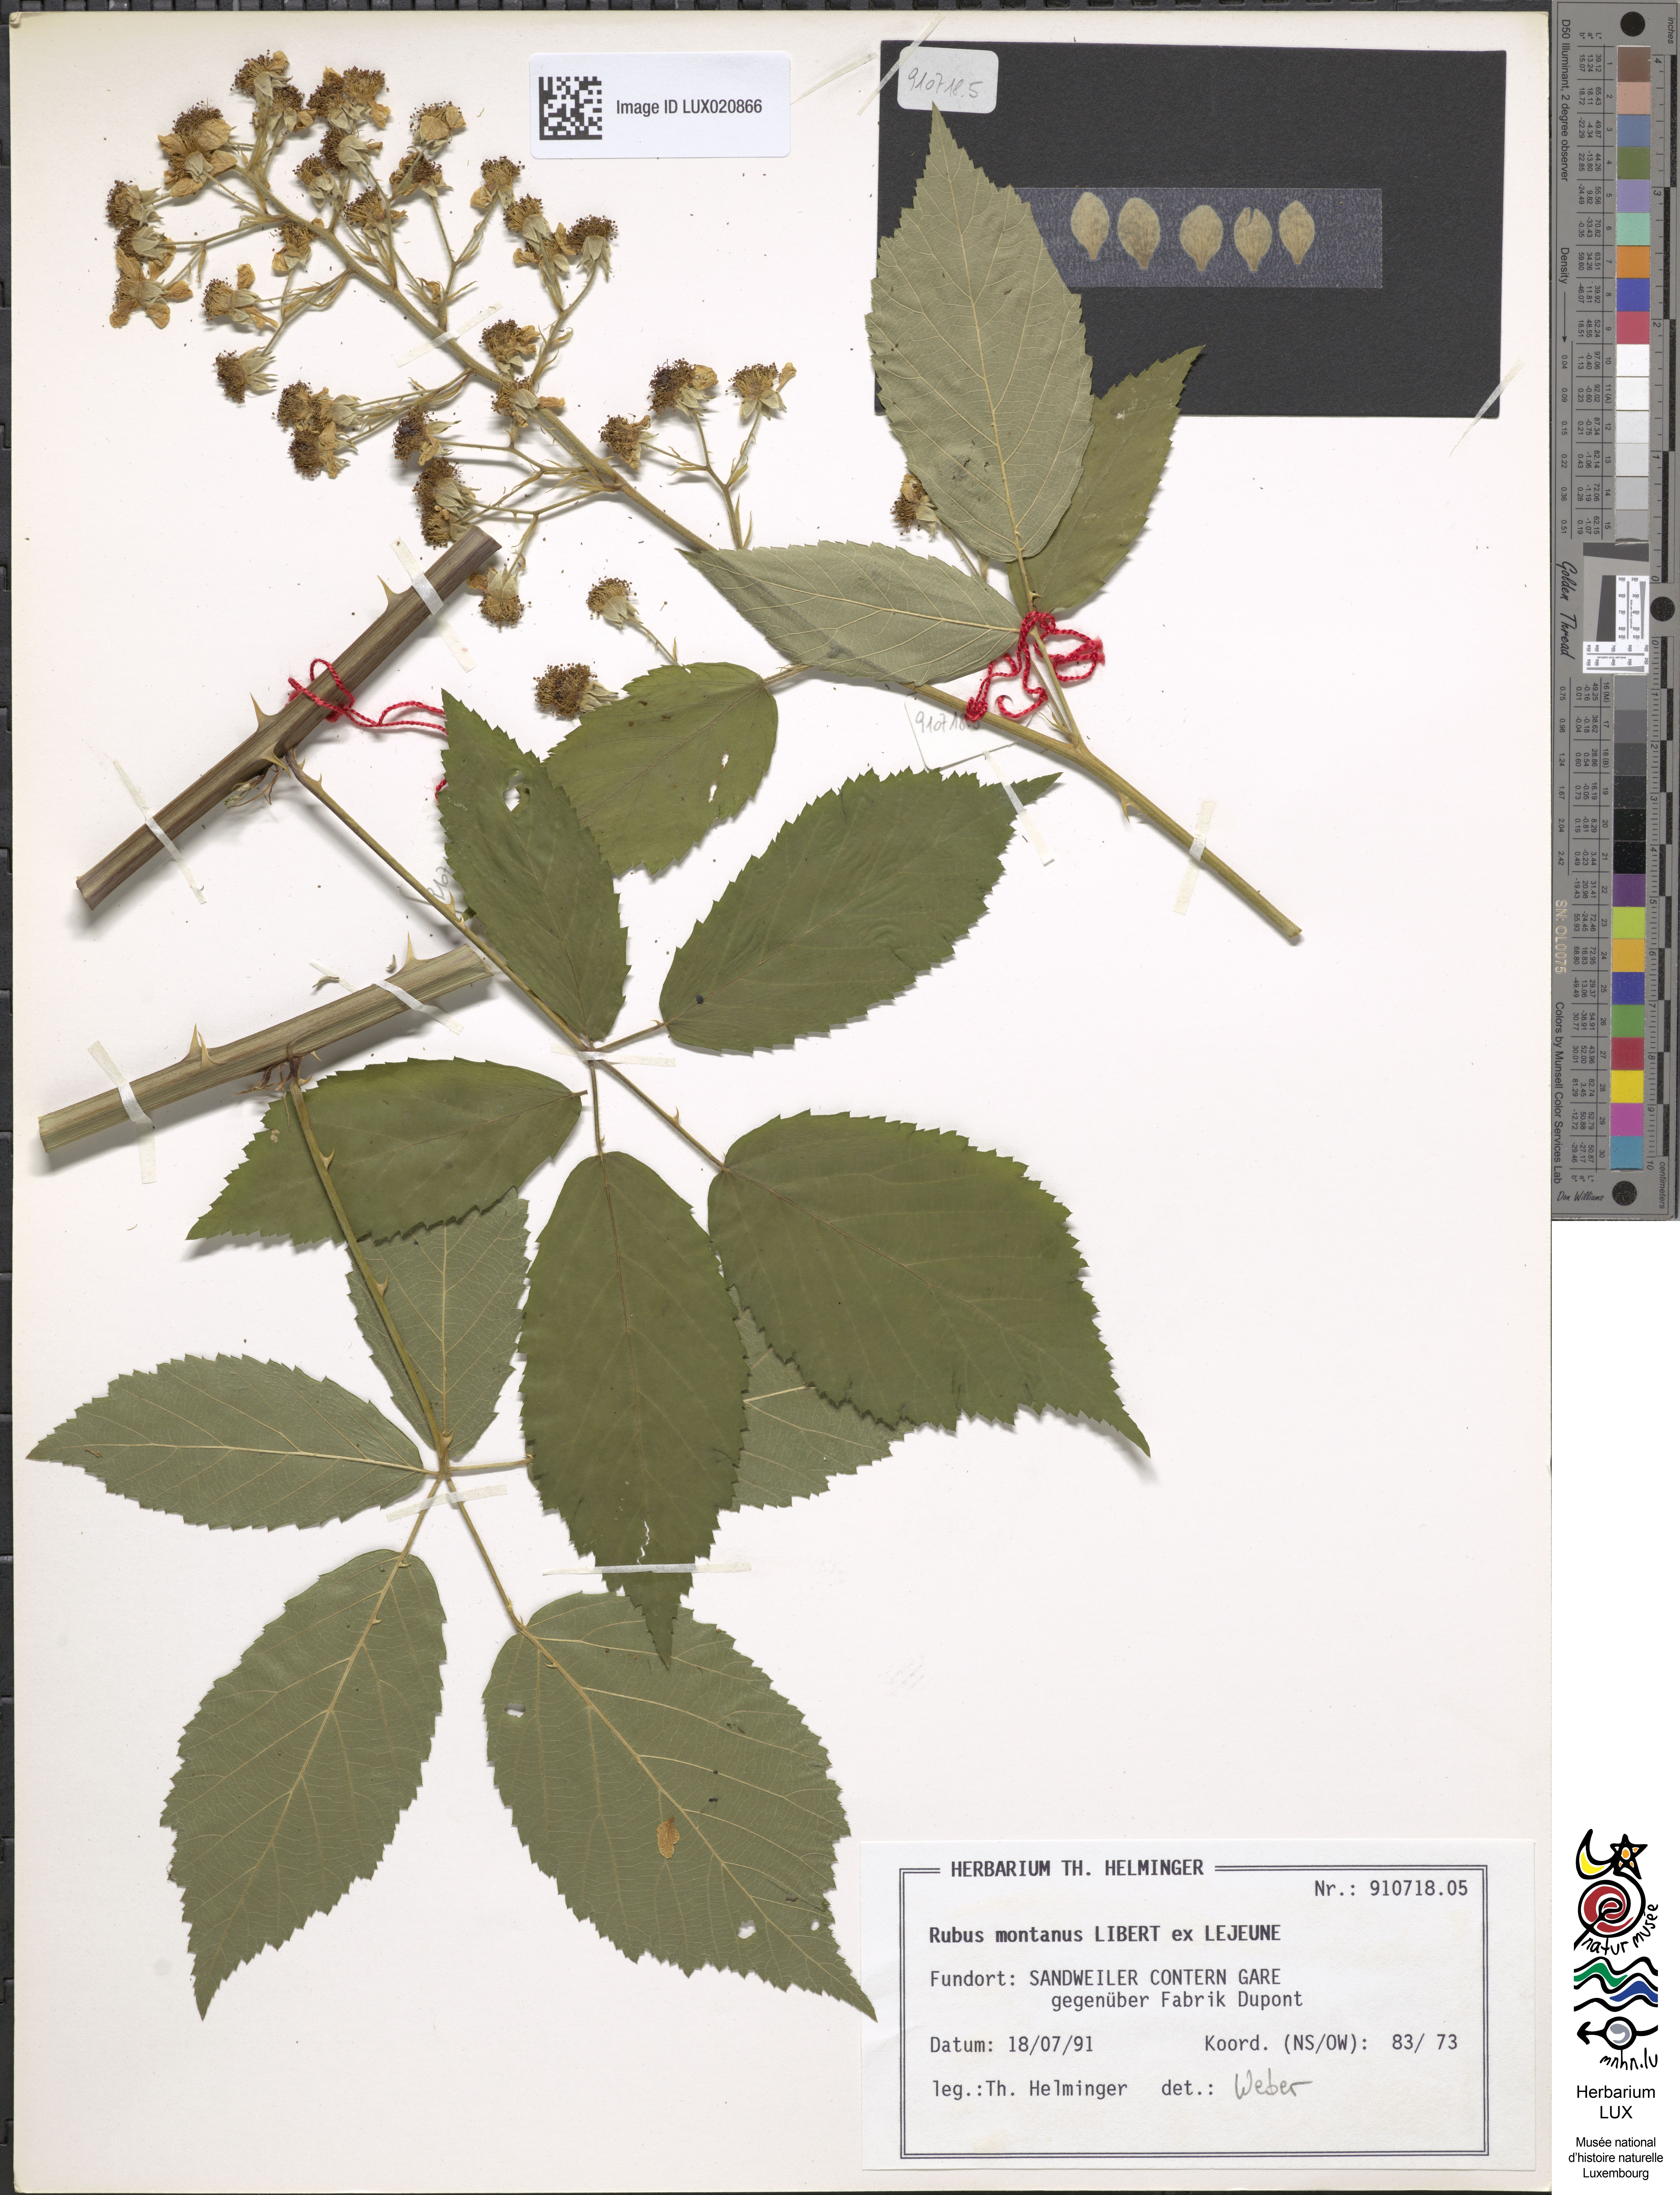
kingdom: Plantae
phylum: Tracheophyta
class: Magnoliopsida
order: Rosales
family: Rosaceae
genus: Rubus
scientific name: Rubus montanus
